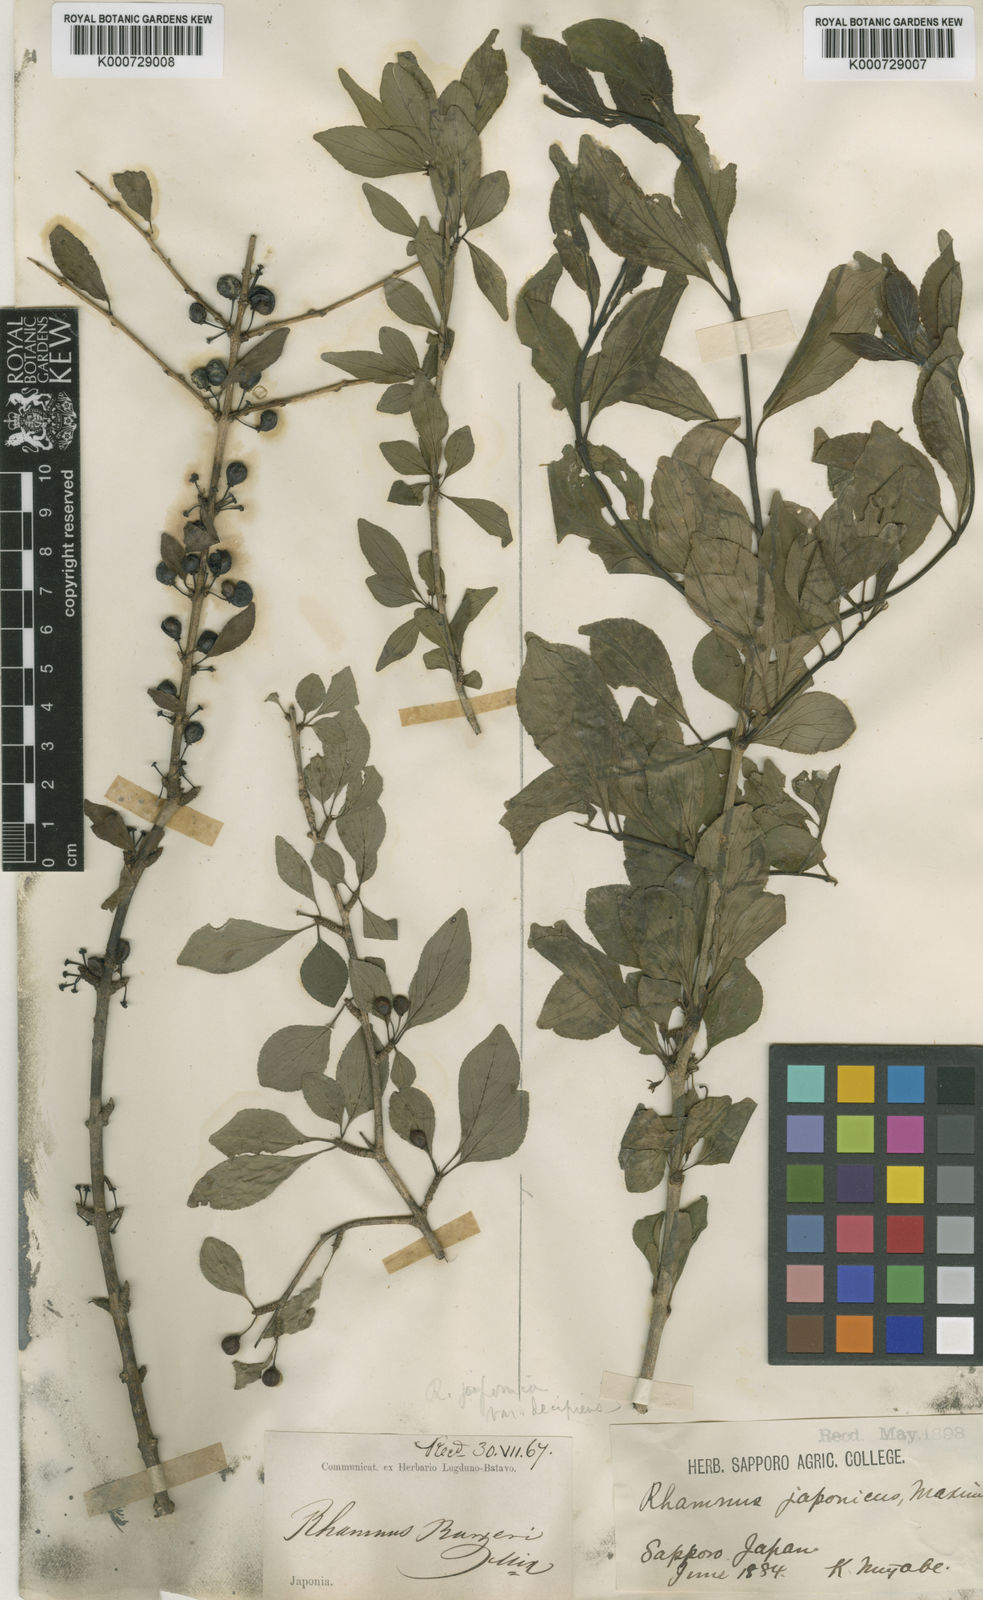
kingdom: Plantae
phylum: Tracheophyta
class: Magnoliopsida
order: Rosales
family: Rhamnaceae
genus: Rhamnus
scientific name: Rhamnus japonica
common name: Japanese buckthorn
